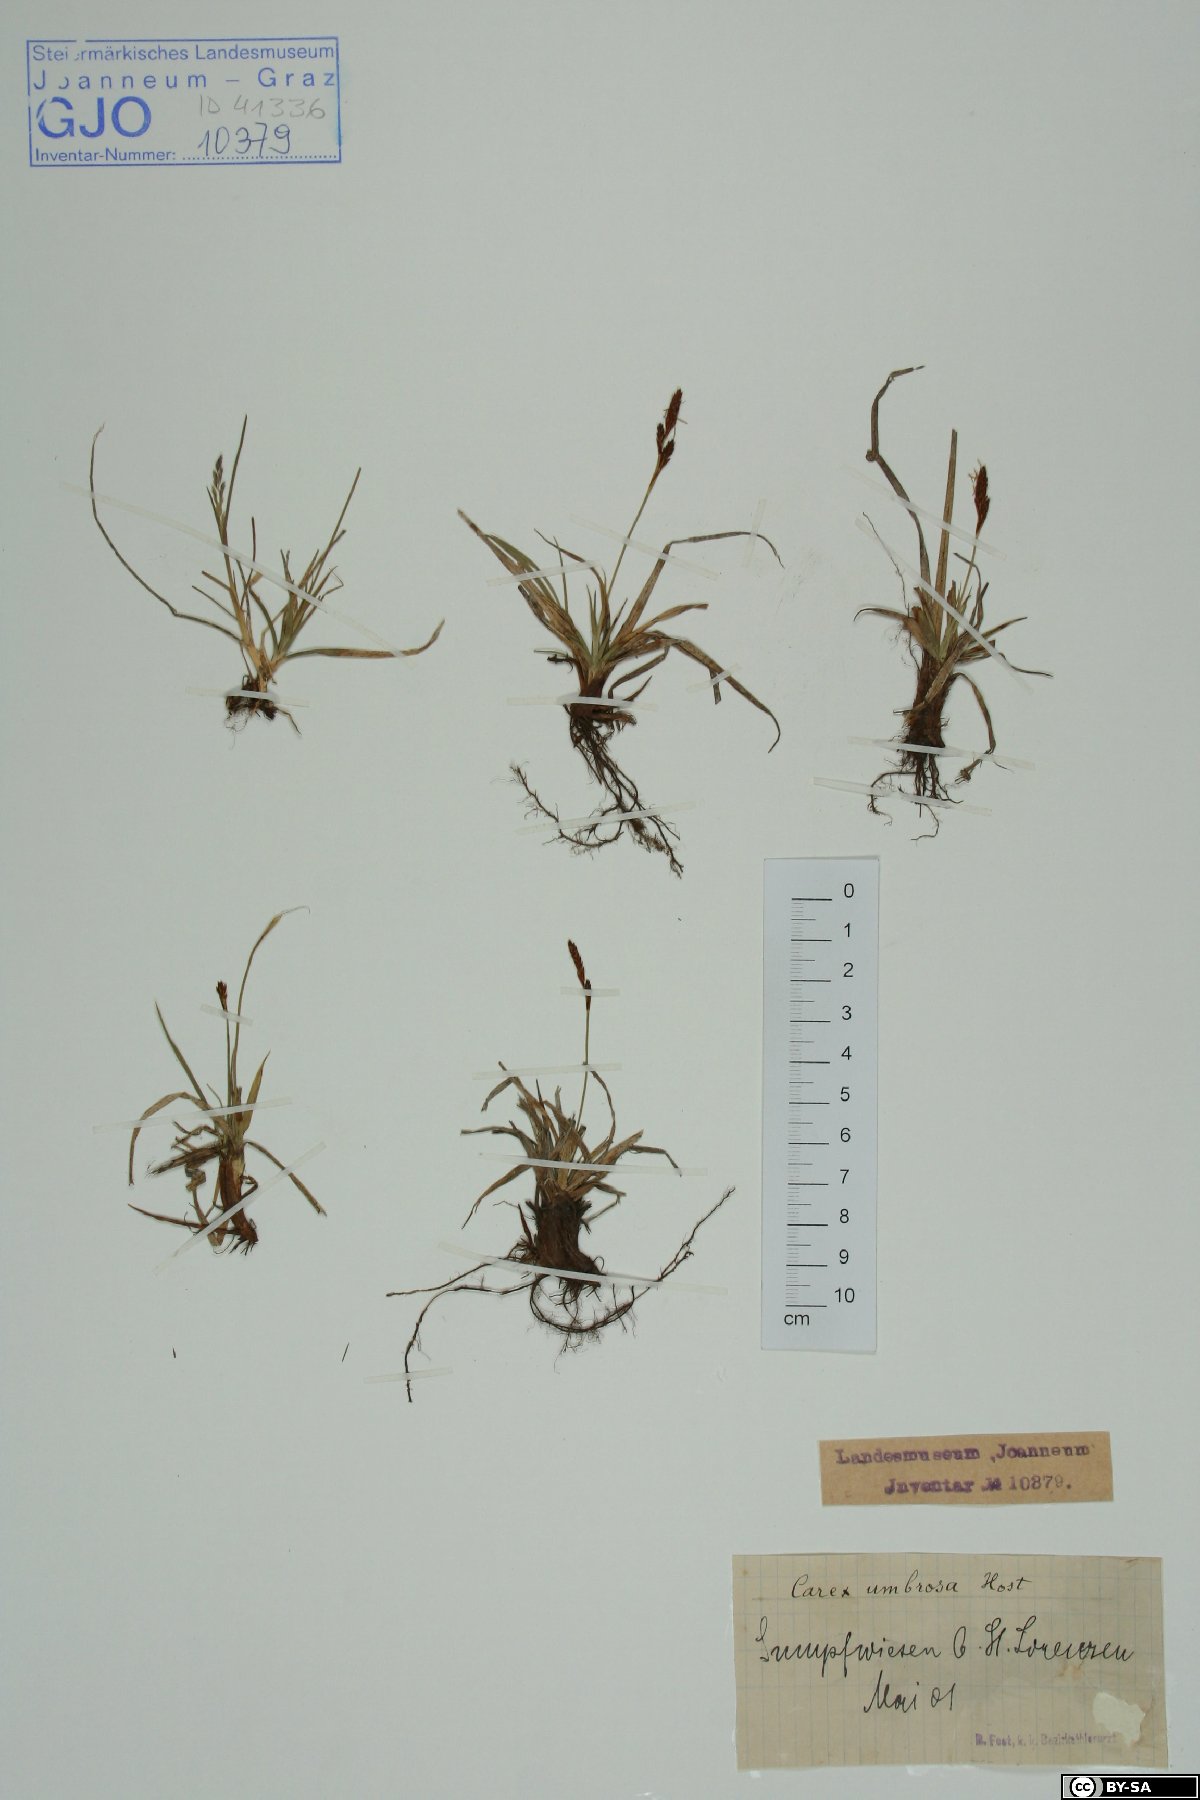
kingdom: Plantae
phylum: Tracheophyta
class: Liliopsida
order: Poales
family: Cyperaceae
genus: Carex
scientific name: Carex umbrosa
